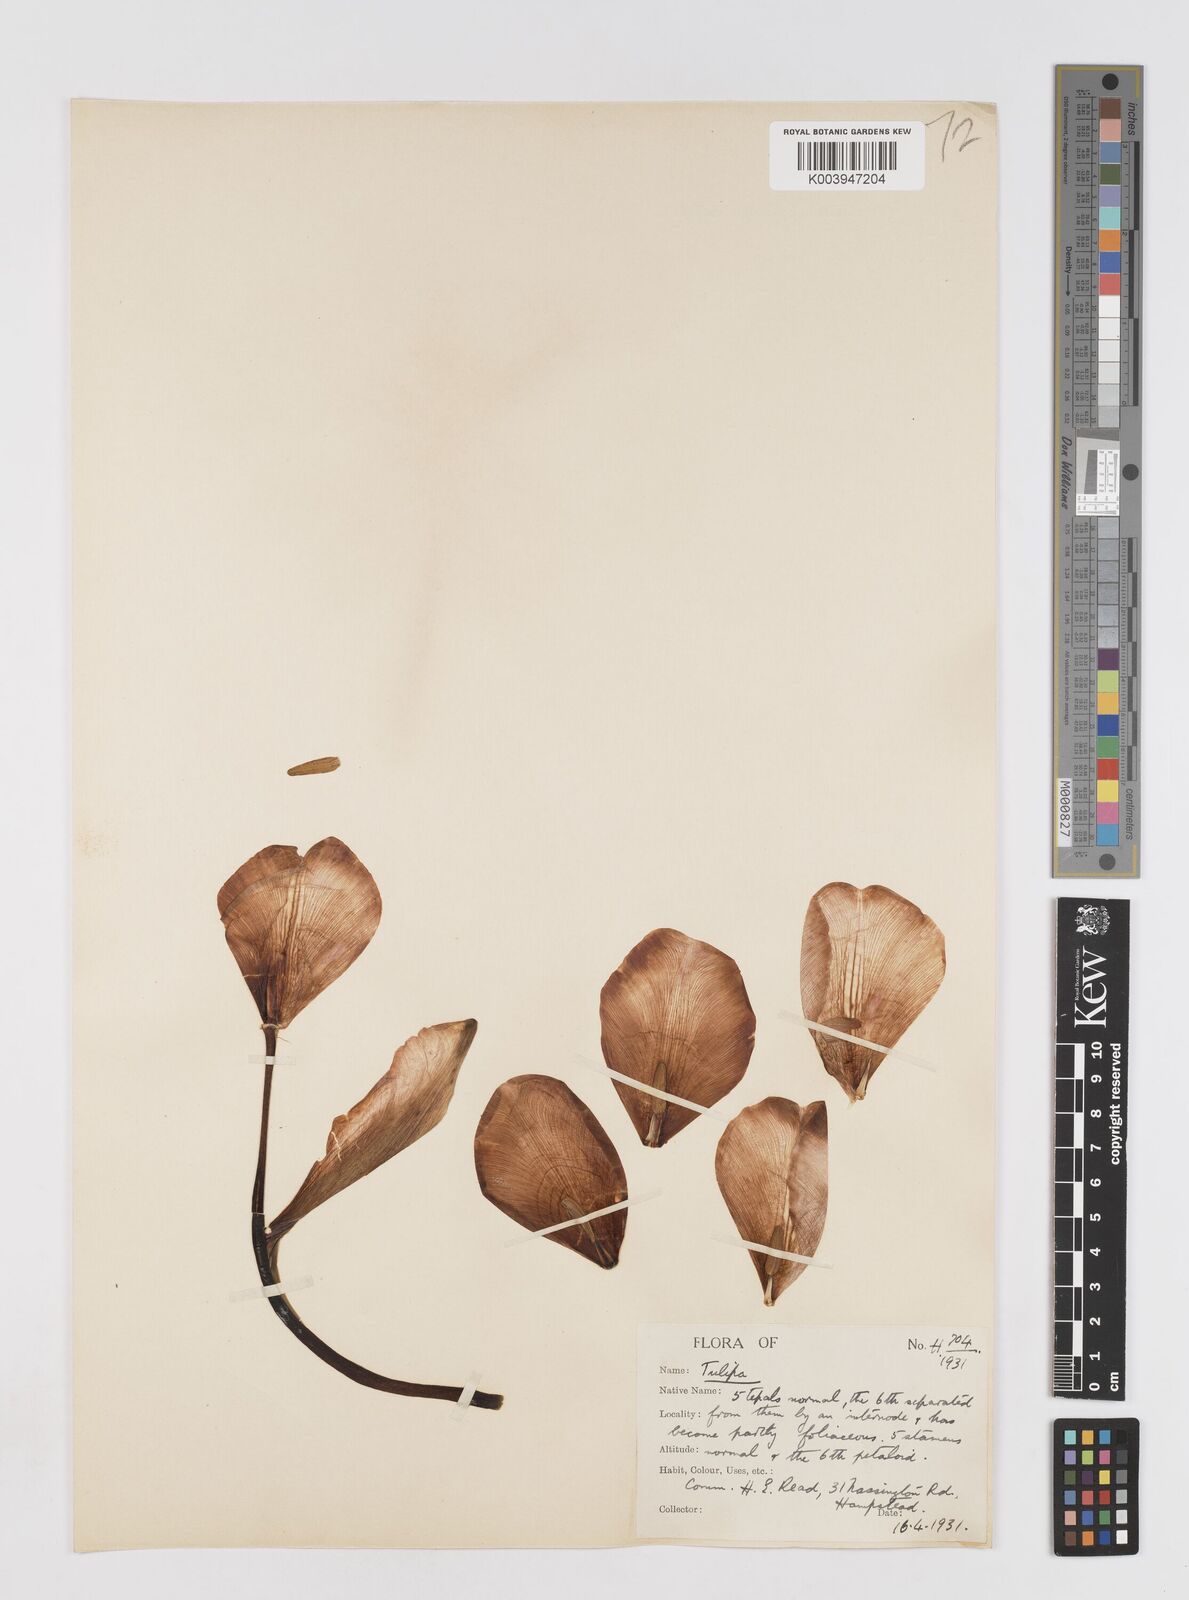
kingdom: Plantae
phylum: Tracheophyta
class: Liliopsida
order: Liliales
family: Liliaceae
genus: Tulipa
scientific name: Tulipa gesneriana
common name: Garden tulip
